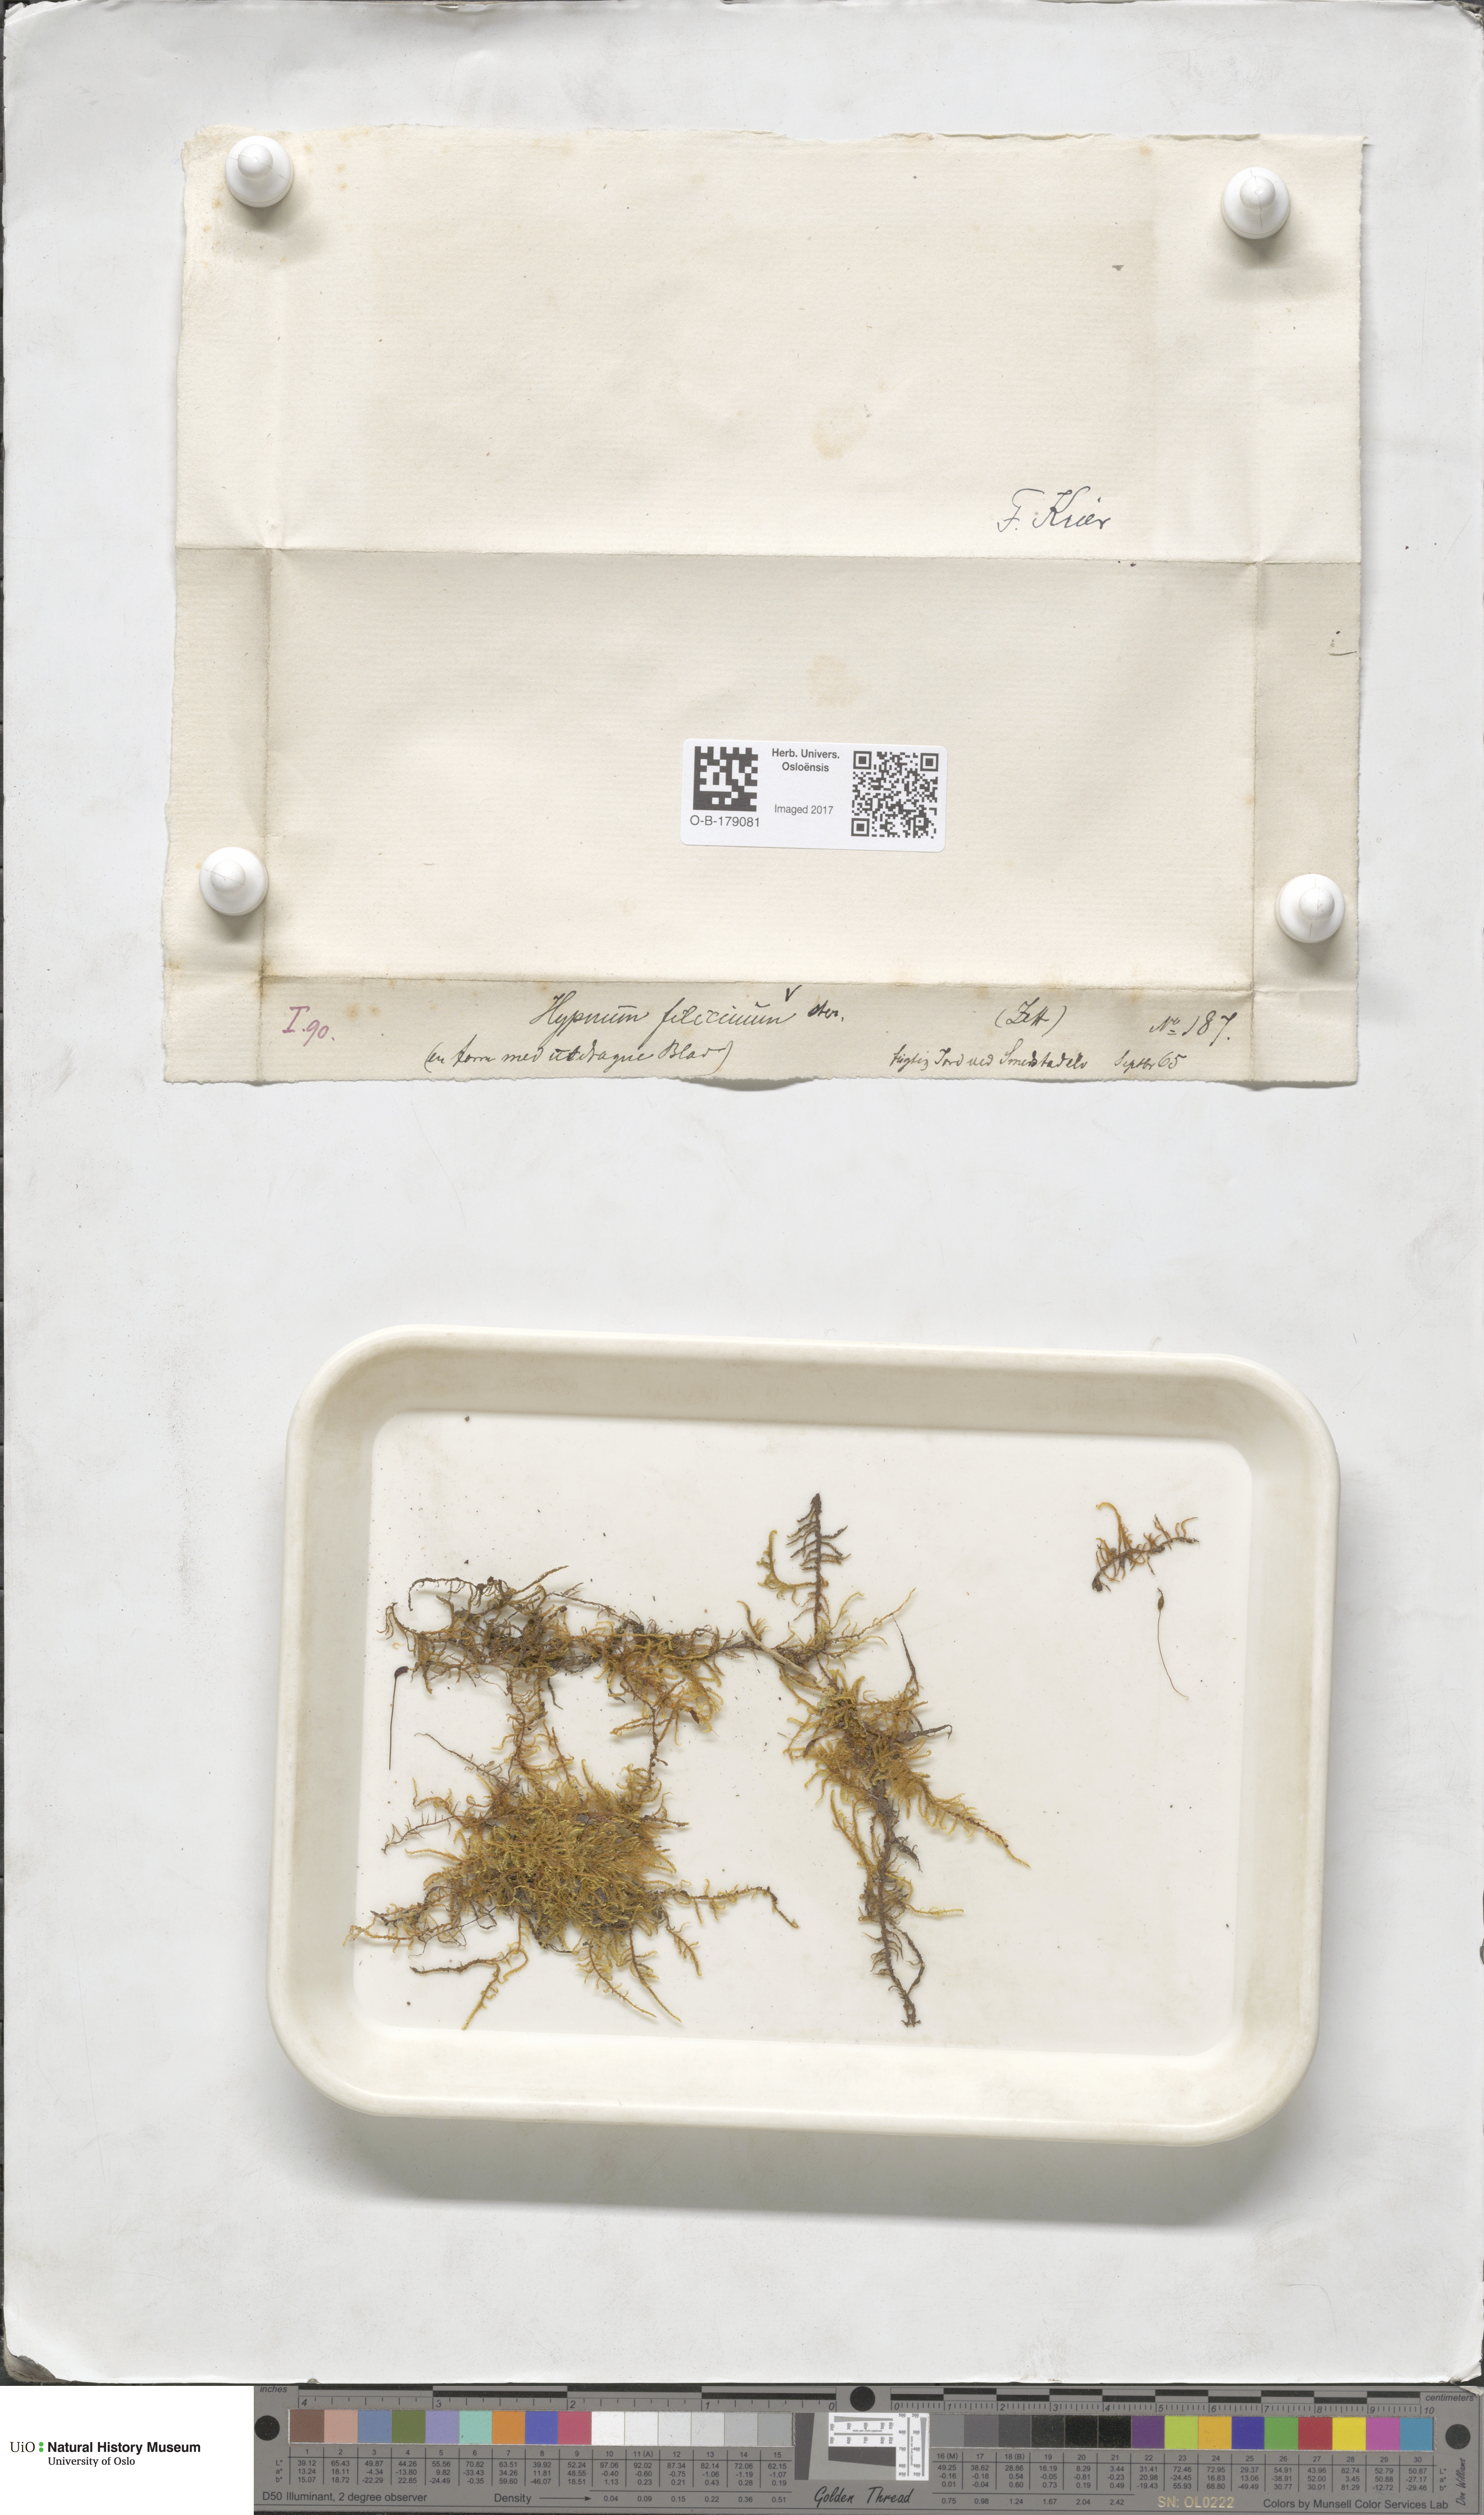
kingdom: Plantae
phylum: Bryophyta
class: Bryopsida
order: Hypnales
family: Amblystegiaceae
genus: Cratoneuron
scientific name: Cratoneuron filicinum
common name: Fern-leaved hook moss
